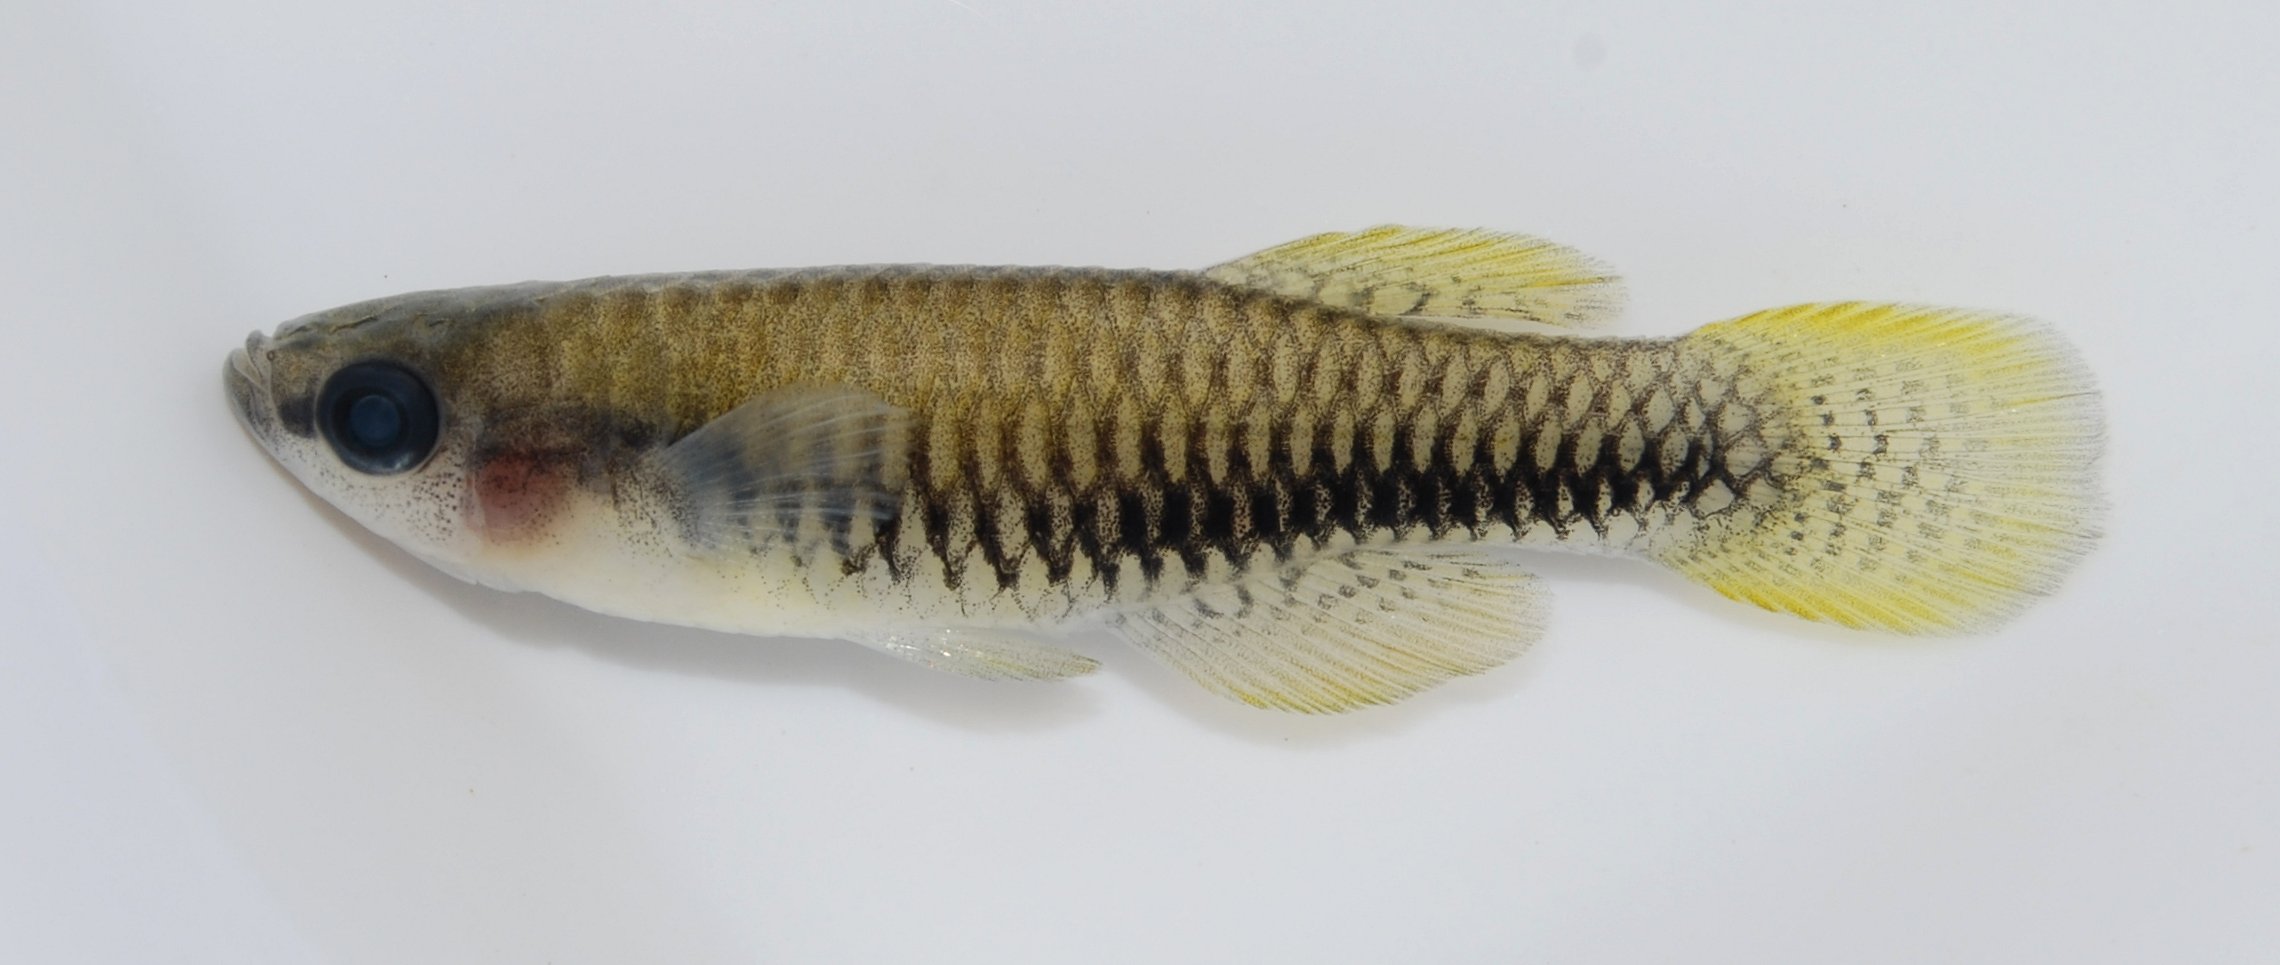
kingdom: Animalia
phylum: Chordata
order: Cyprinodontiformes
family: Poeciliidae
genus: Lacustricola
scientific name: Lacustricola katangae
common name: Striped topminnow
